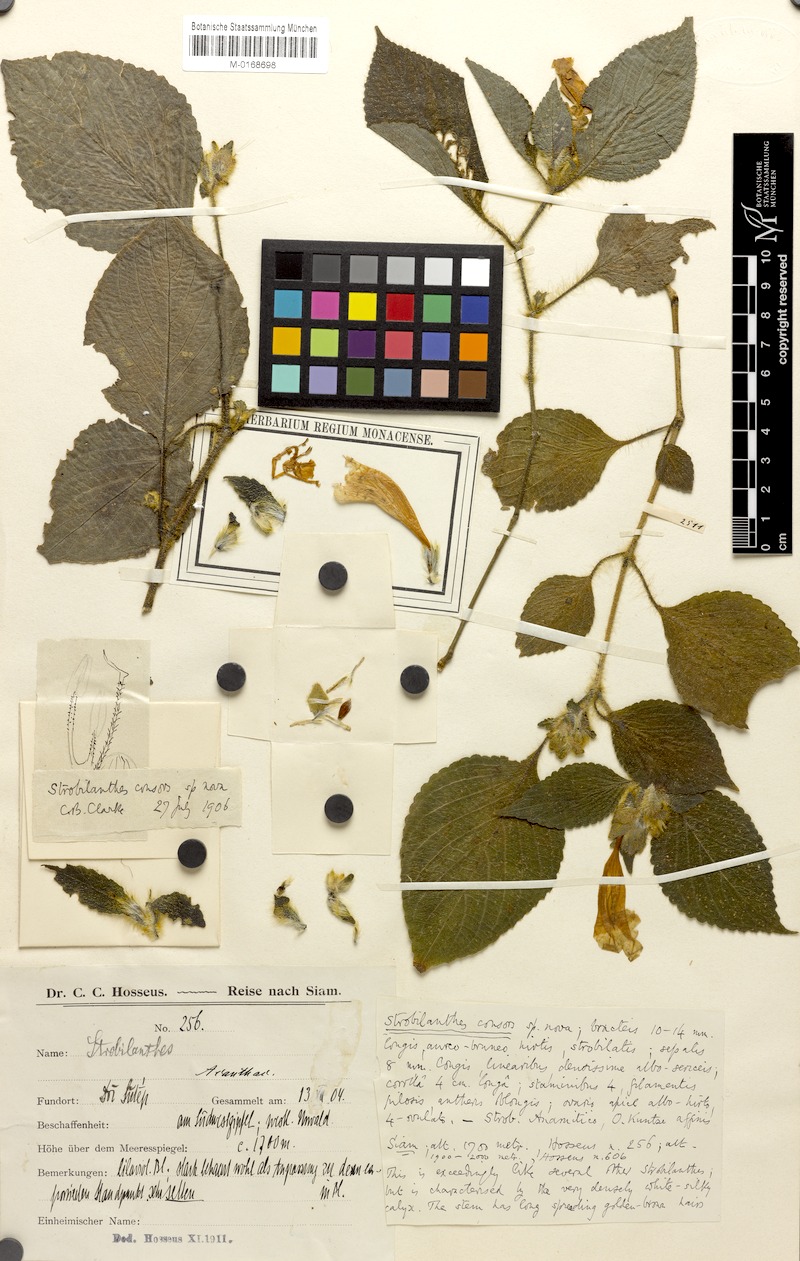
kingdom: Plantae
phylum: Tracheophyta
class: Magnoliopsida
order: Lamiales
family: Acanthaceae
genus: Strobilanthes
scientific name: Strobilanthes hossei
